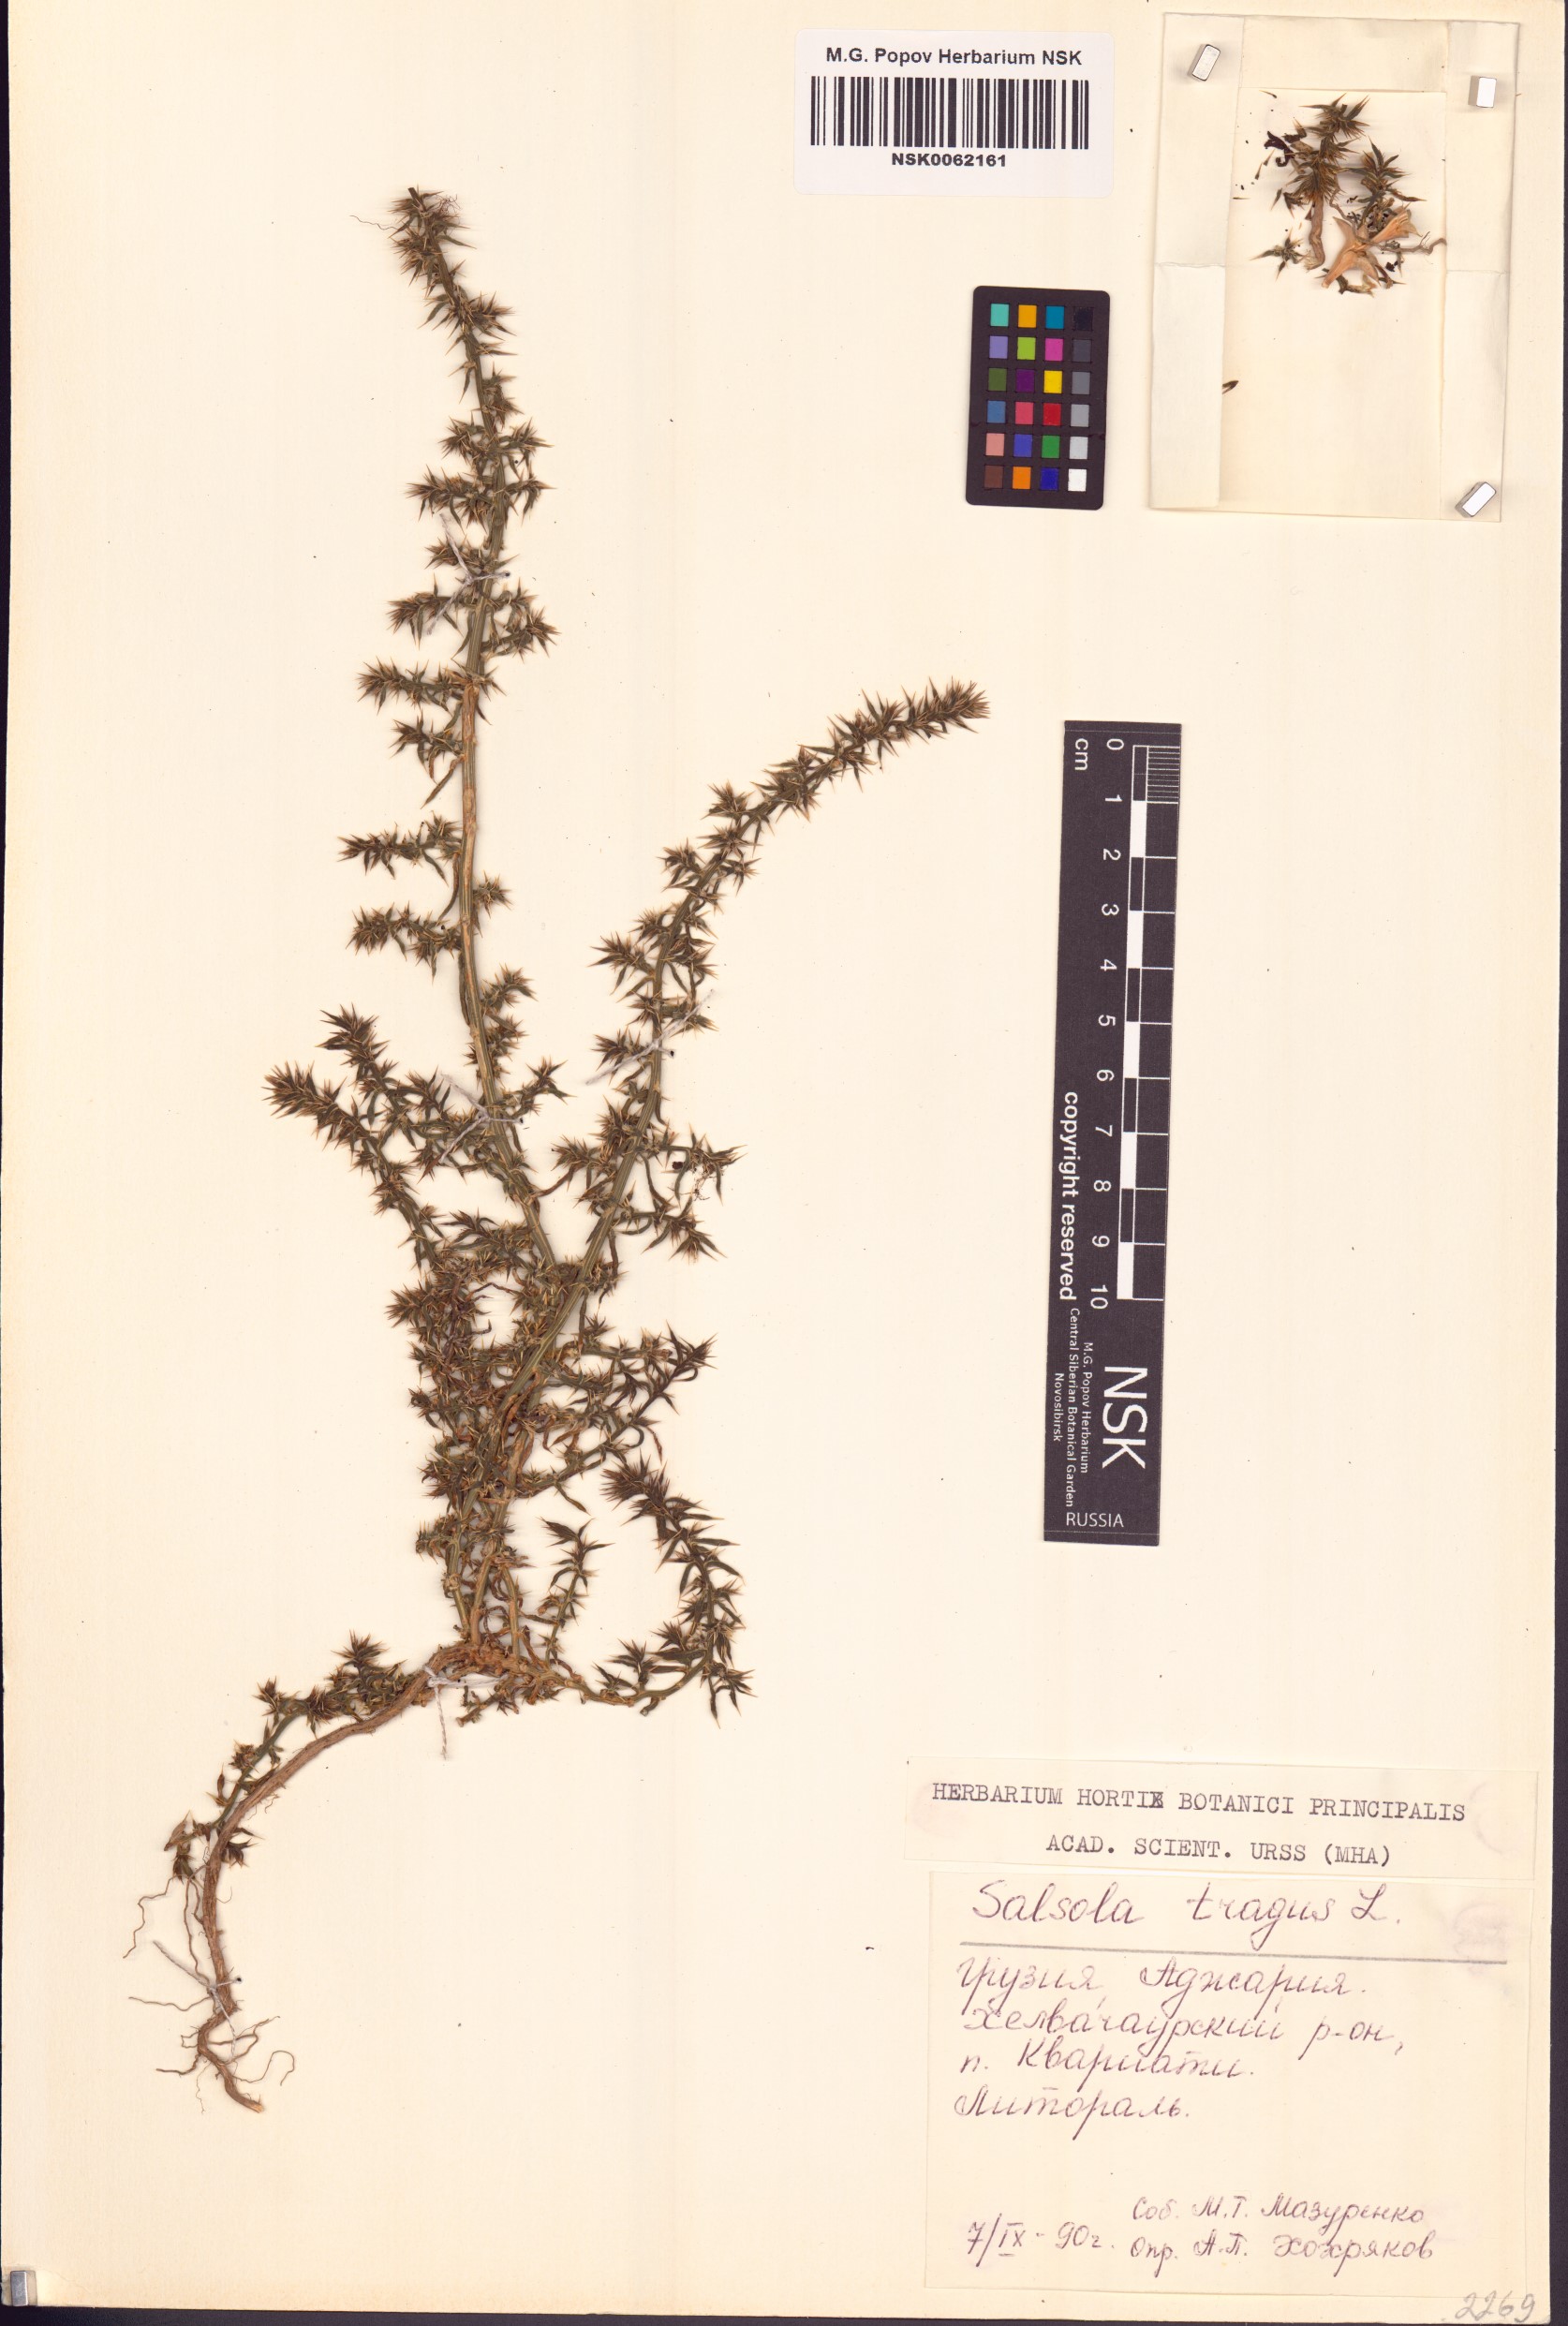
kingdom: Plantae
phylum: Tracheophyta
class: Magnoliopsida
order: Caryophyllales
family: Amaranthaceae
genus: Salsola
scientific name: Salsola tragus
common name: Prickly russian thistle
